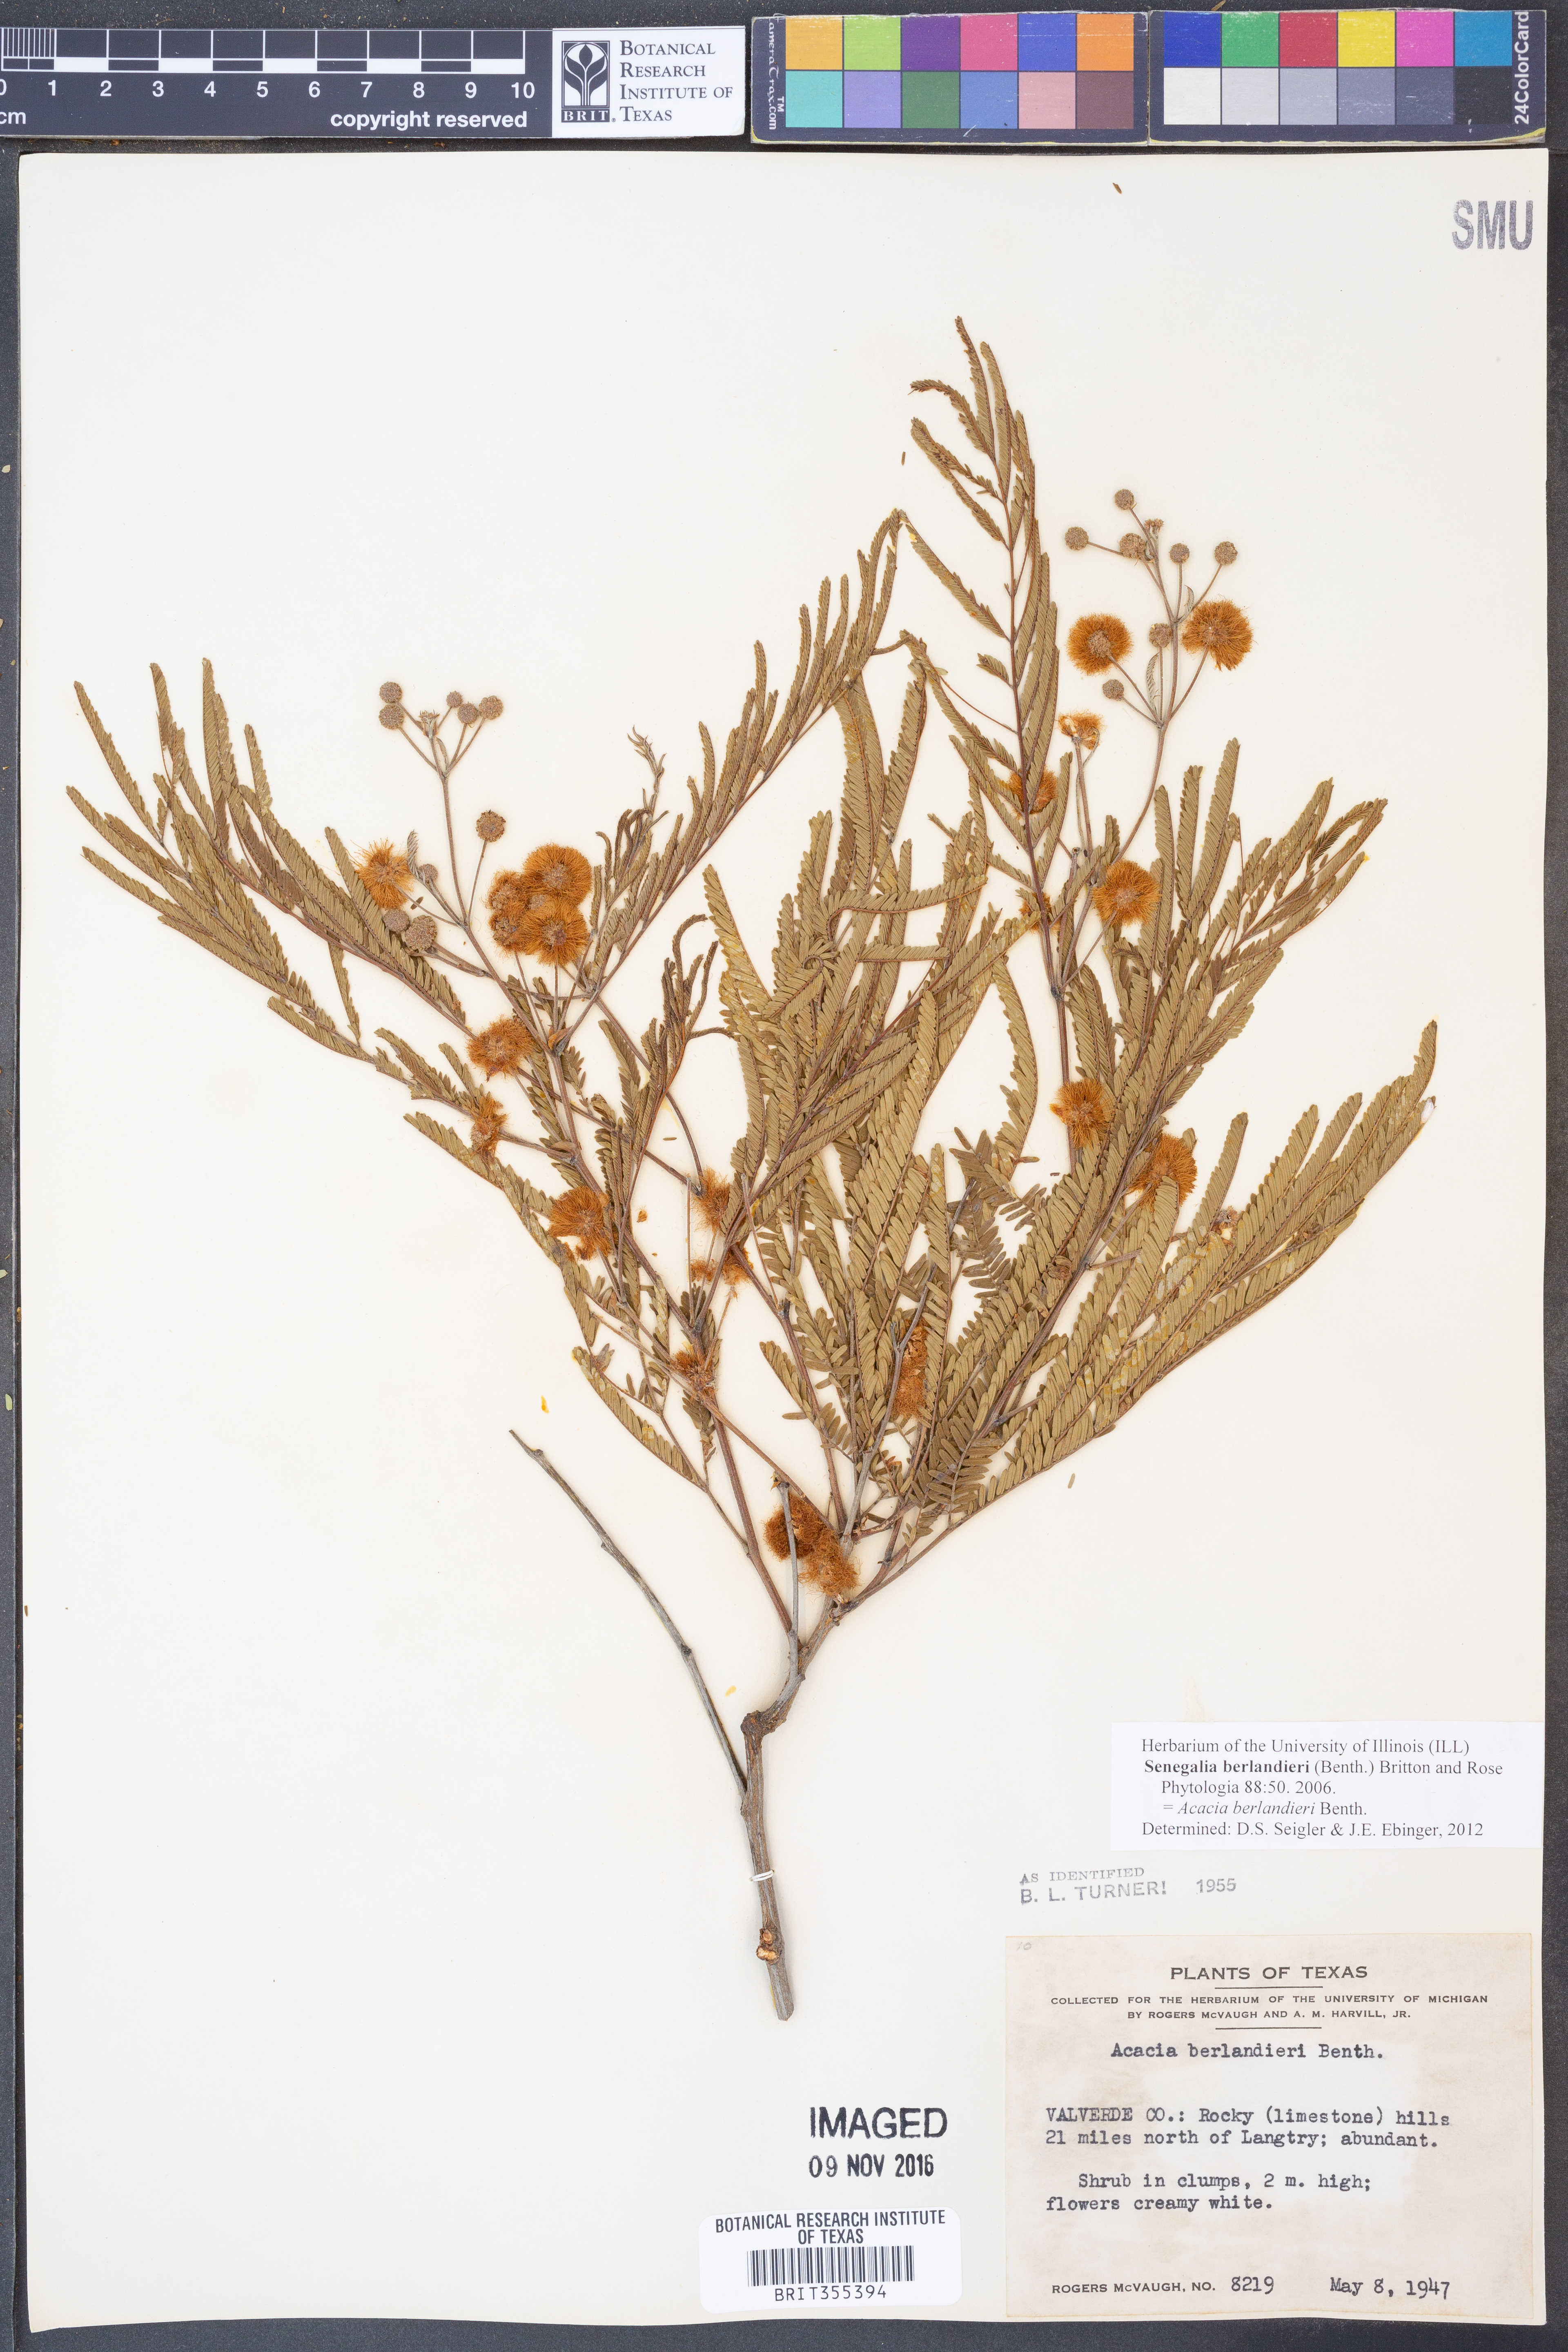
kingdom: Plantae
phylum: Tracheophyta
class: Magnoliopsida
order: Fabales
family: Fabaceae
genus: Senegalia
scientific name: Senegalia berlandieri
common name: Berlandier acacia
